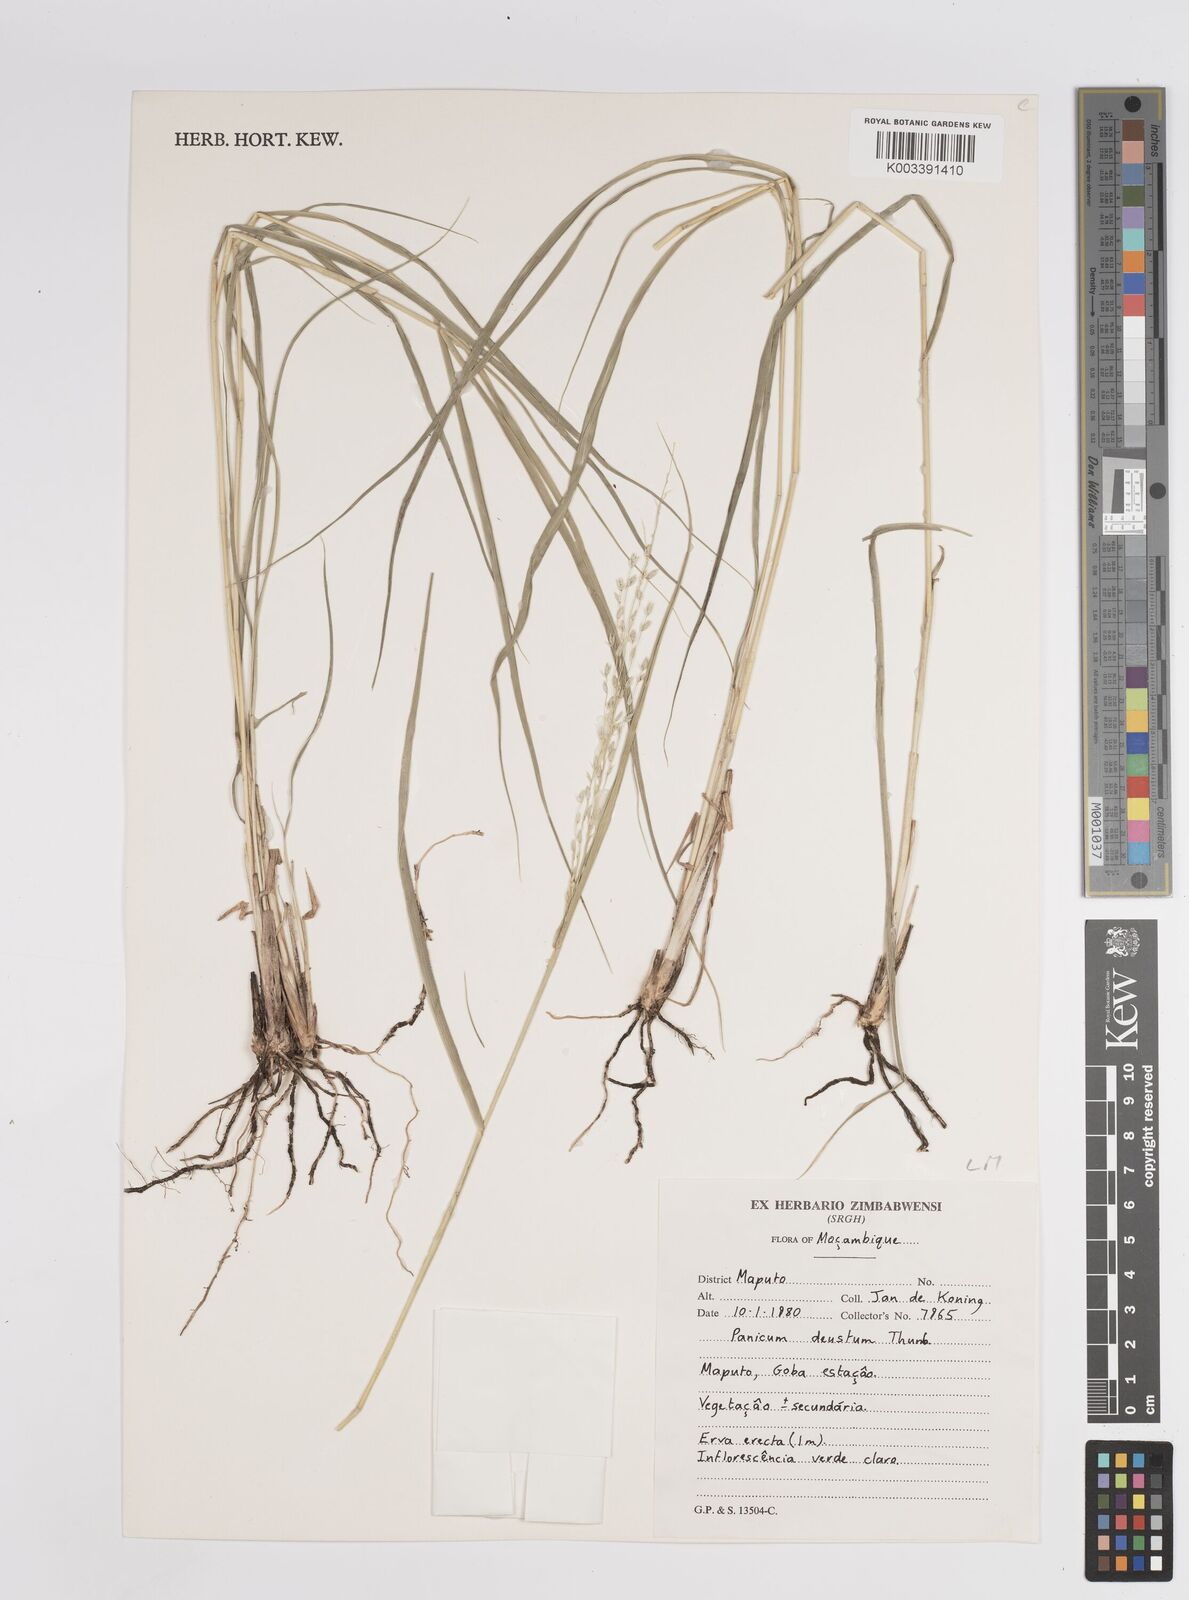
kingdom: Plantae
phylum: Tracheophyta
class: Liliopsida
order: Poales
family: Poaceae
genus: Panicum
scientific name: Panicum deustum
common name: Reed panicum
